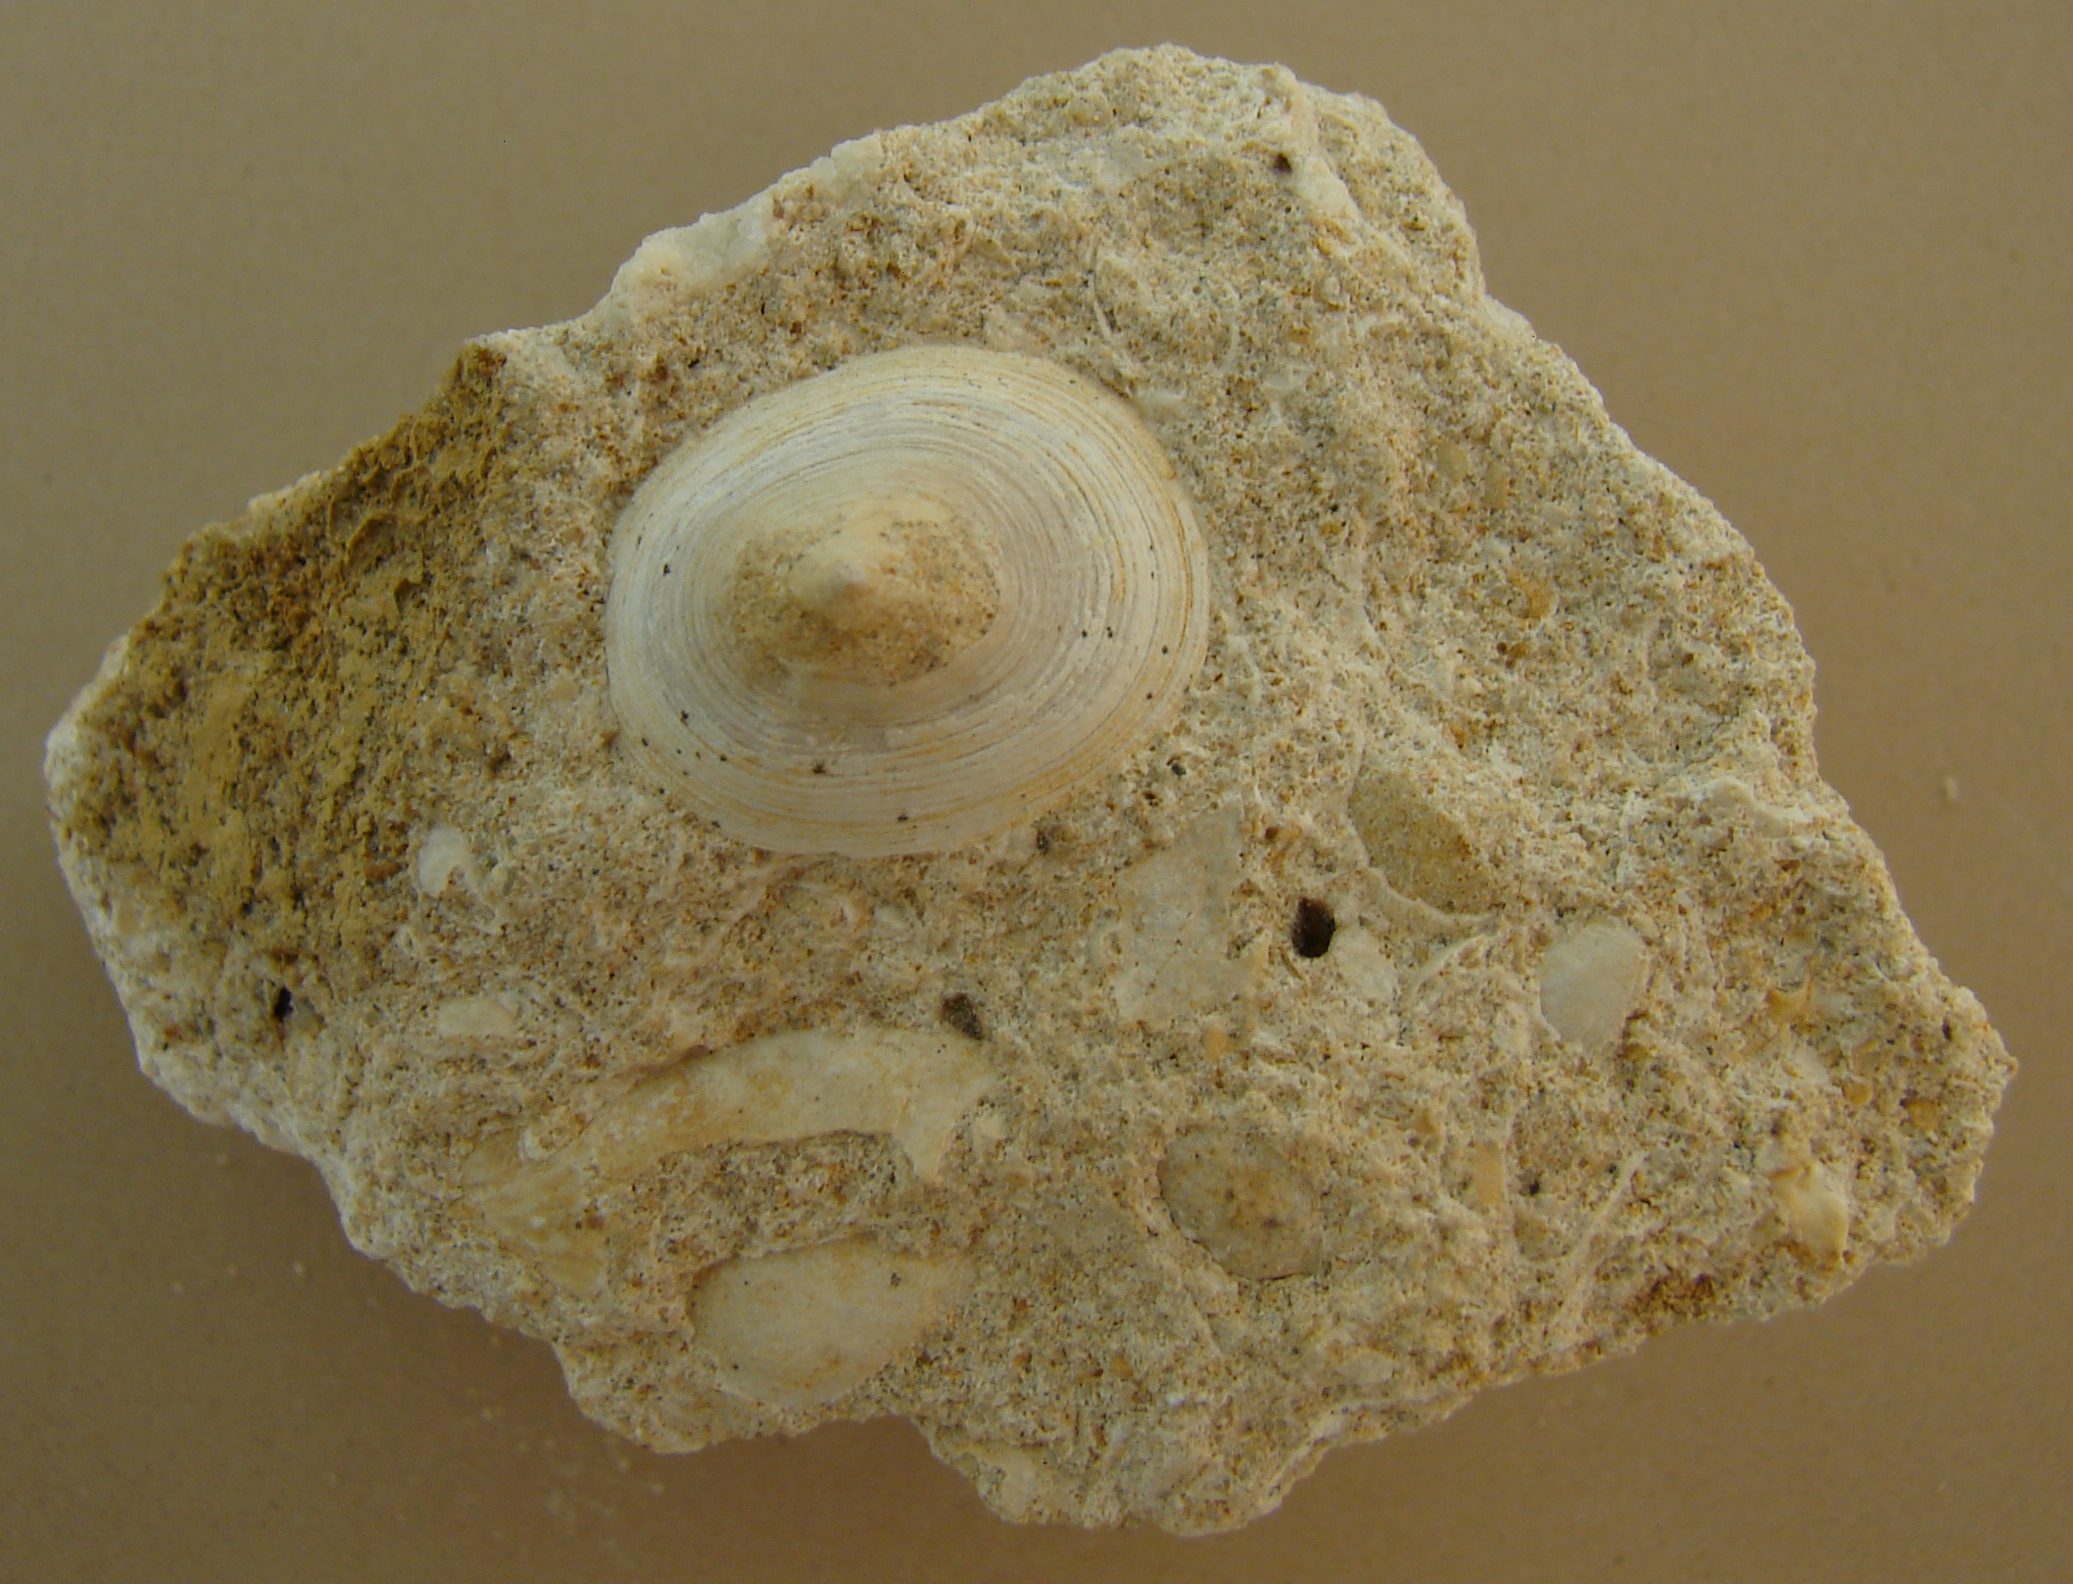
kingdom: Animalia
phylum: Mollusca
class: Gastropoda
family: Acmaeadae
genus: Scurriopsis
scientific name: Scurriopsis Patella hettangiensis
